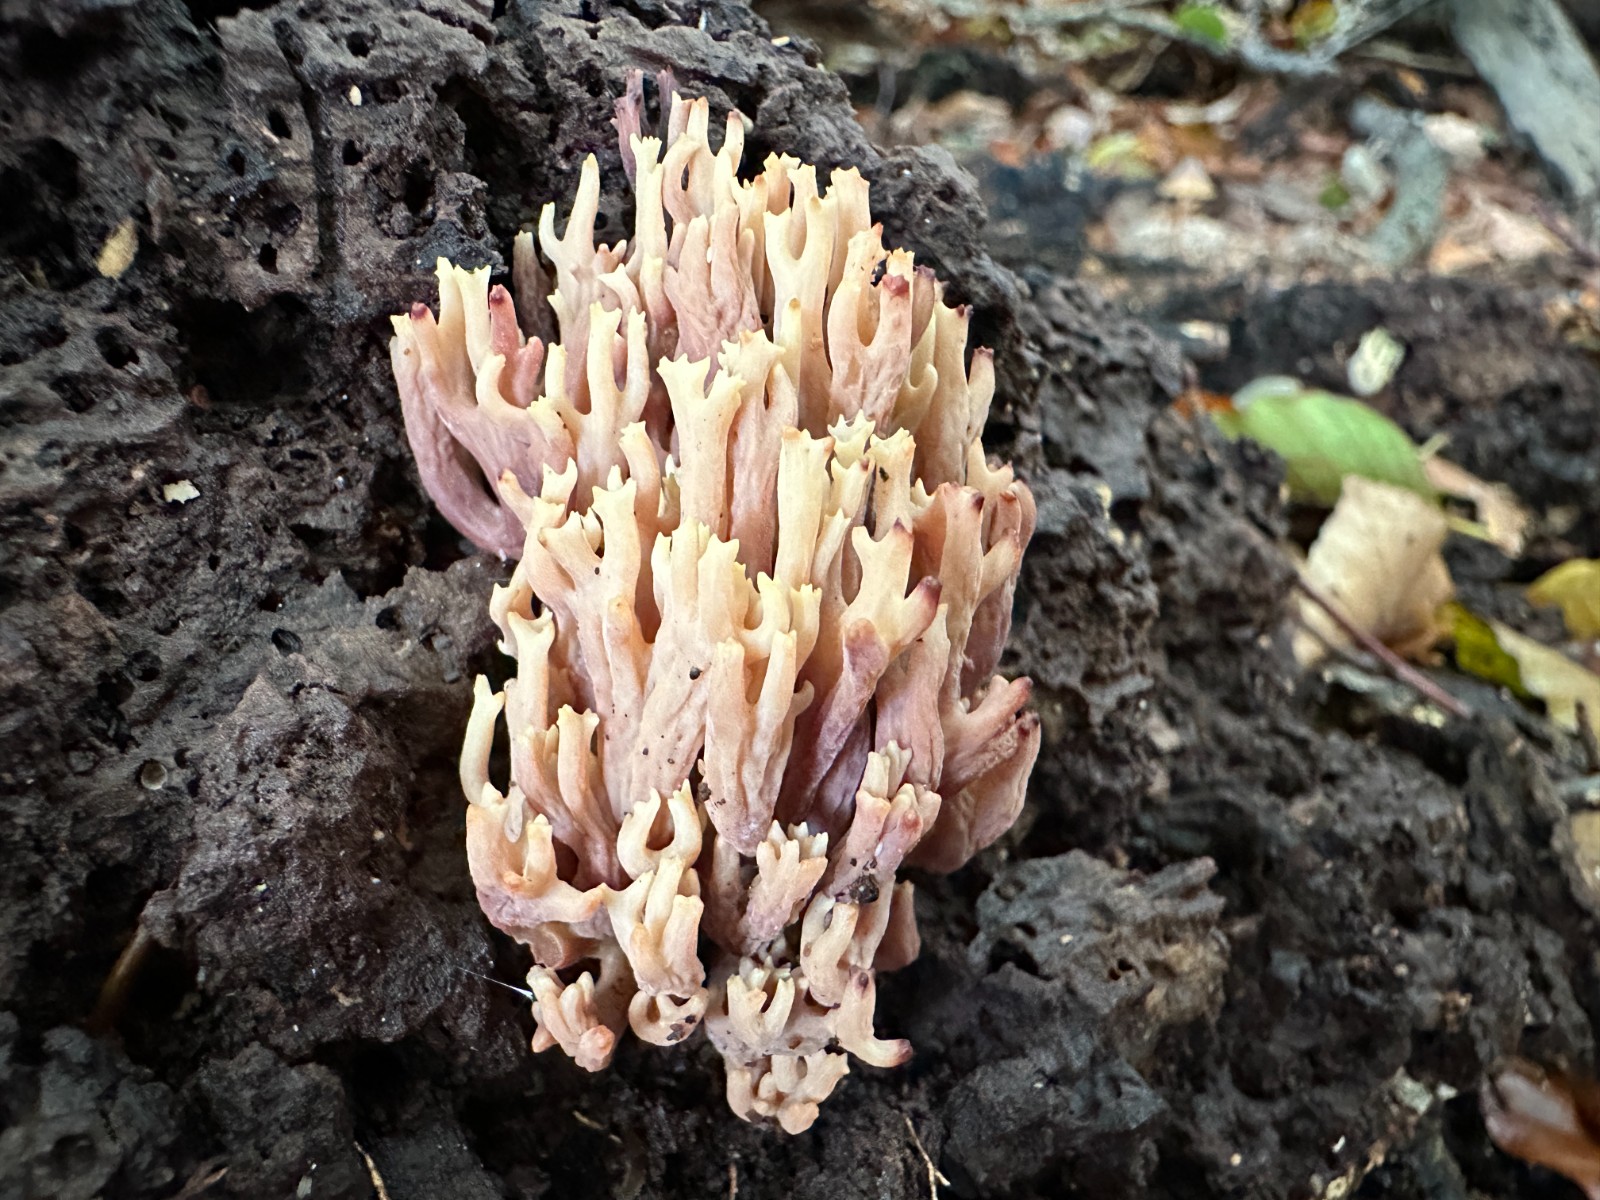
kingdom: Fungi
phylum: Basidiomycota
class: Agaricomycetes
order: Gomphales
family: Gomphaceae
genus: Ramaria
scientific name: Ramaria stricta
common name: rank koralsvamp
